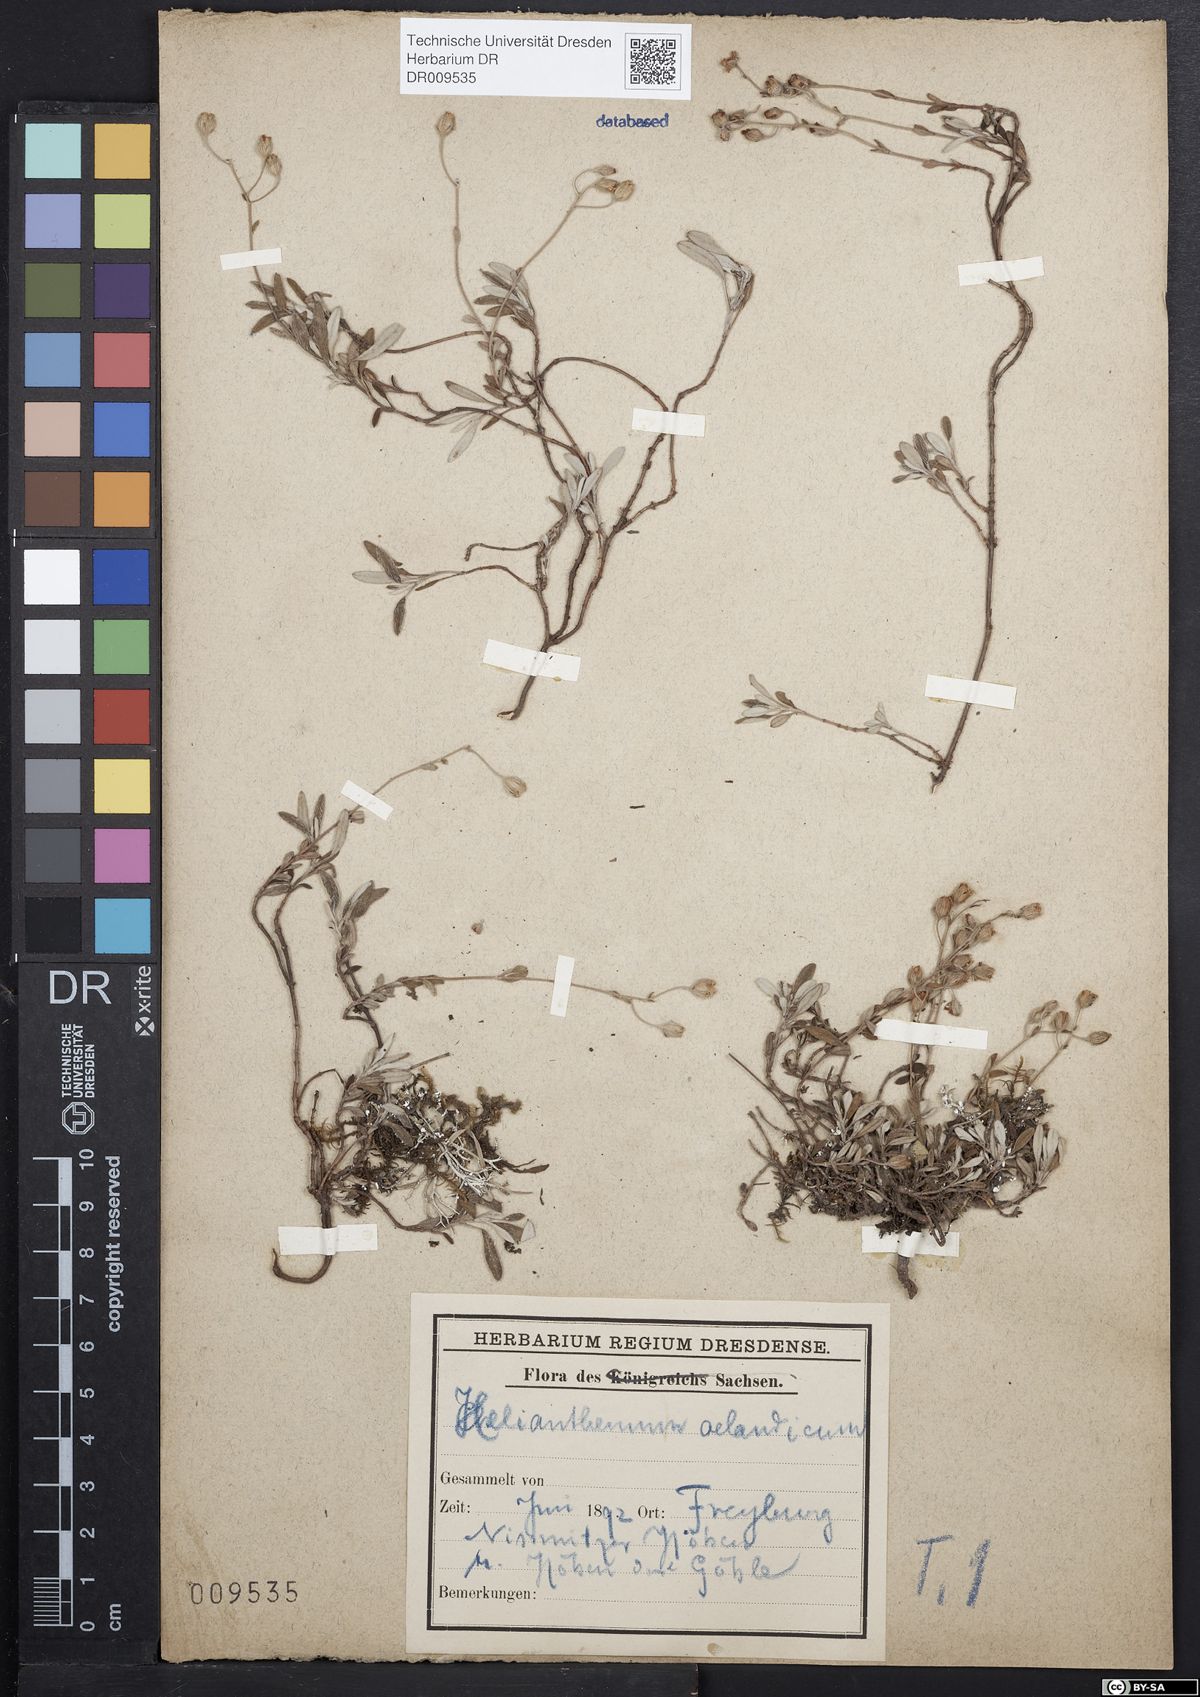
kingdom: Plantae
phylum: Tracheophyta
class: Magnoliopsida
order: Malvales
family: Cistaceae
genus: Helianthemum
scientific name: Helianthemum canum
